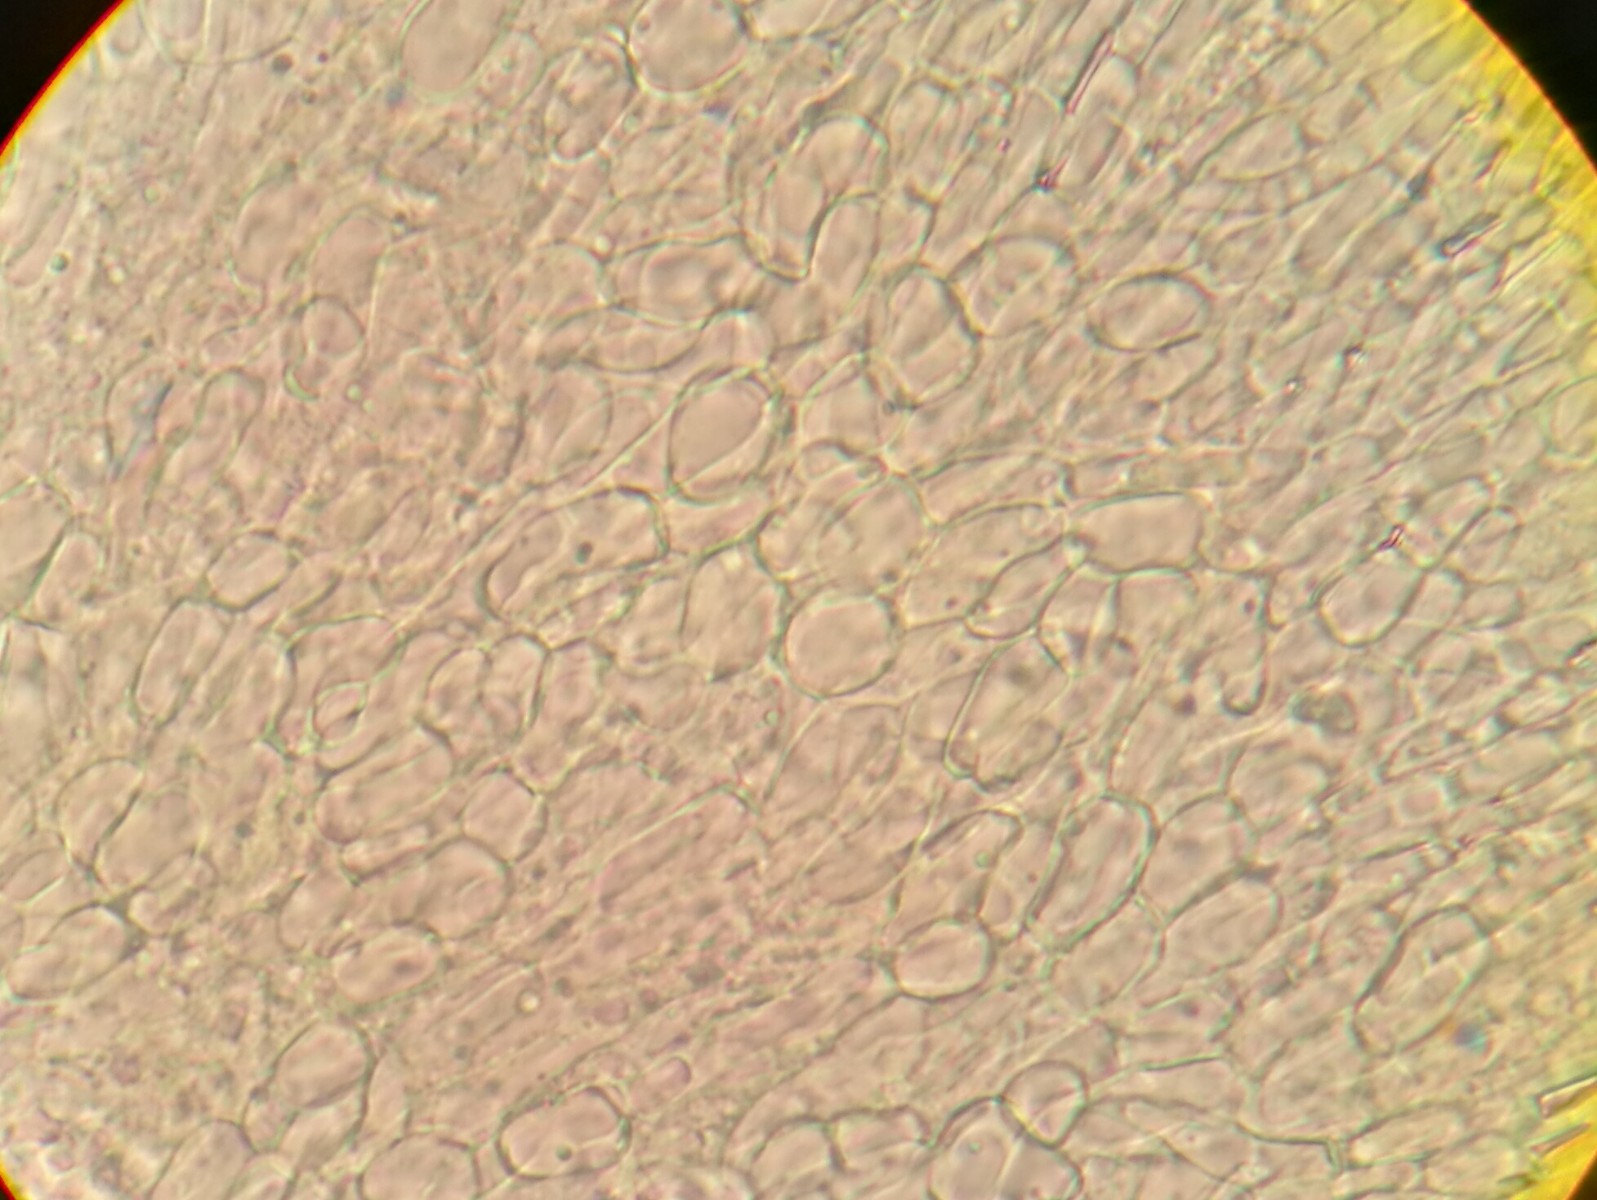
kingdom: Fungi
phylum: Ascomycota
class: Leotiomycetes
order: Helotiales
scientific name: Helotiales
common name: stilkskiveordenen
